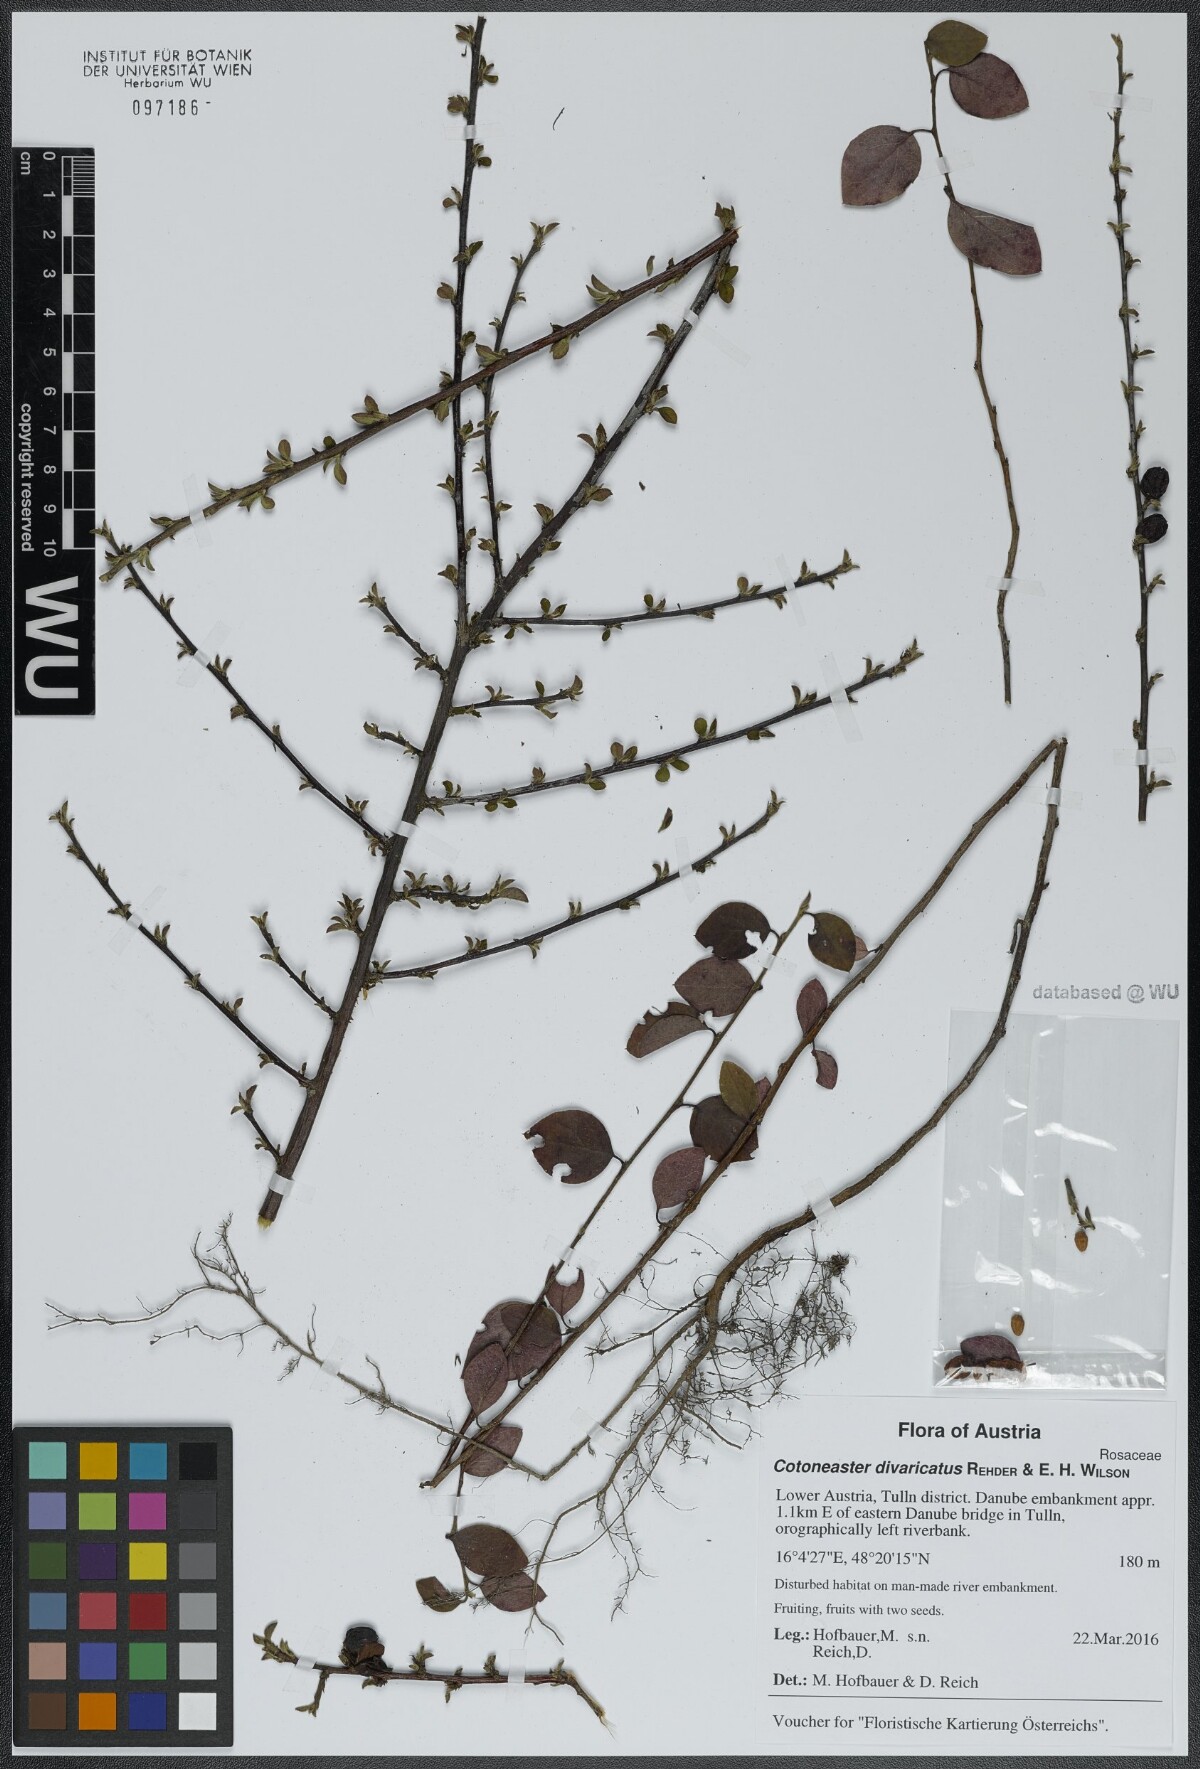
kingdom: Plantae
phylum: Tracheophyta
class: Magnoliopsida
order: Rosales
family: Rosaceae
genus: Cotoneaster
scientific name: Cotoneaster divaricatus
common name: Spreading cotoneaster
